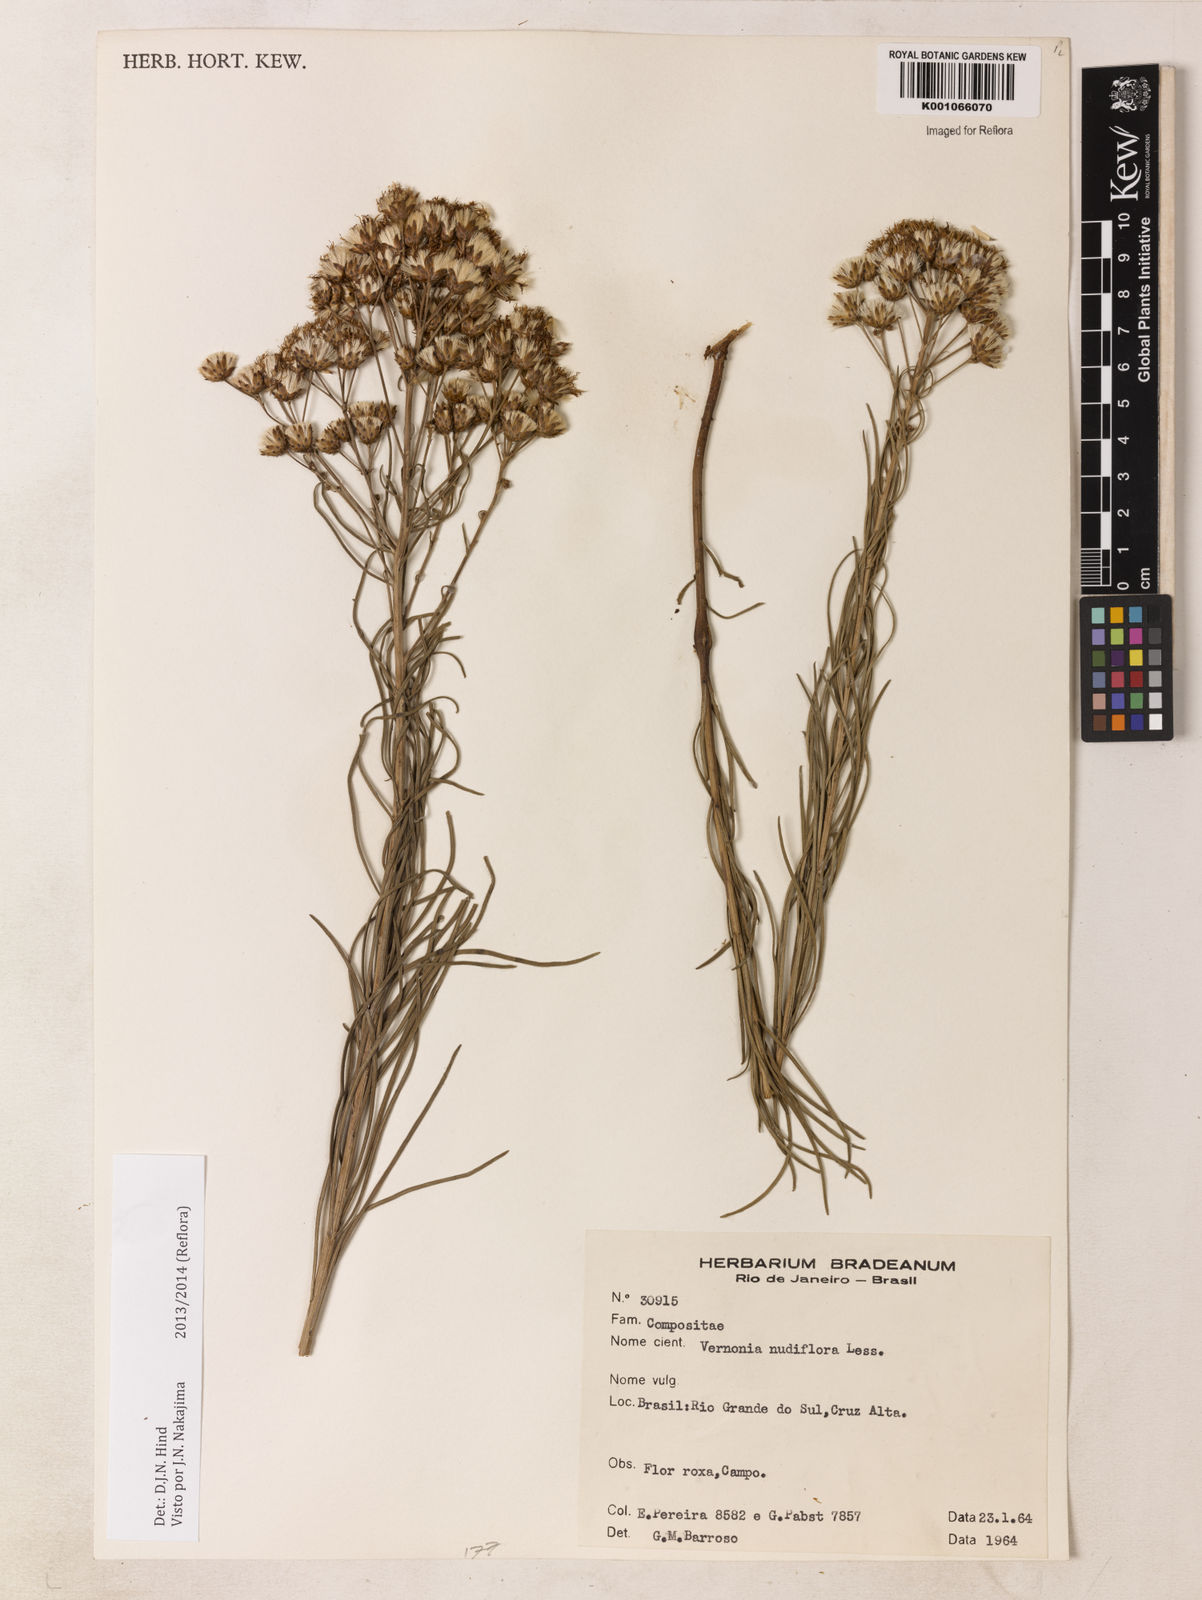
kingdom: Plantae
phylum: Tracheophyta
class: Magnoliopsida
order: Asterales
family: Asteraceae
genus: Vernonanthura
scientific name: Vernonanthura nudiflora
